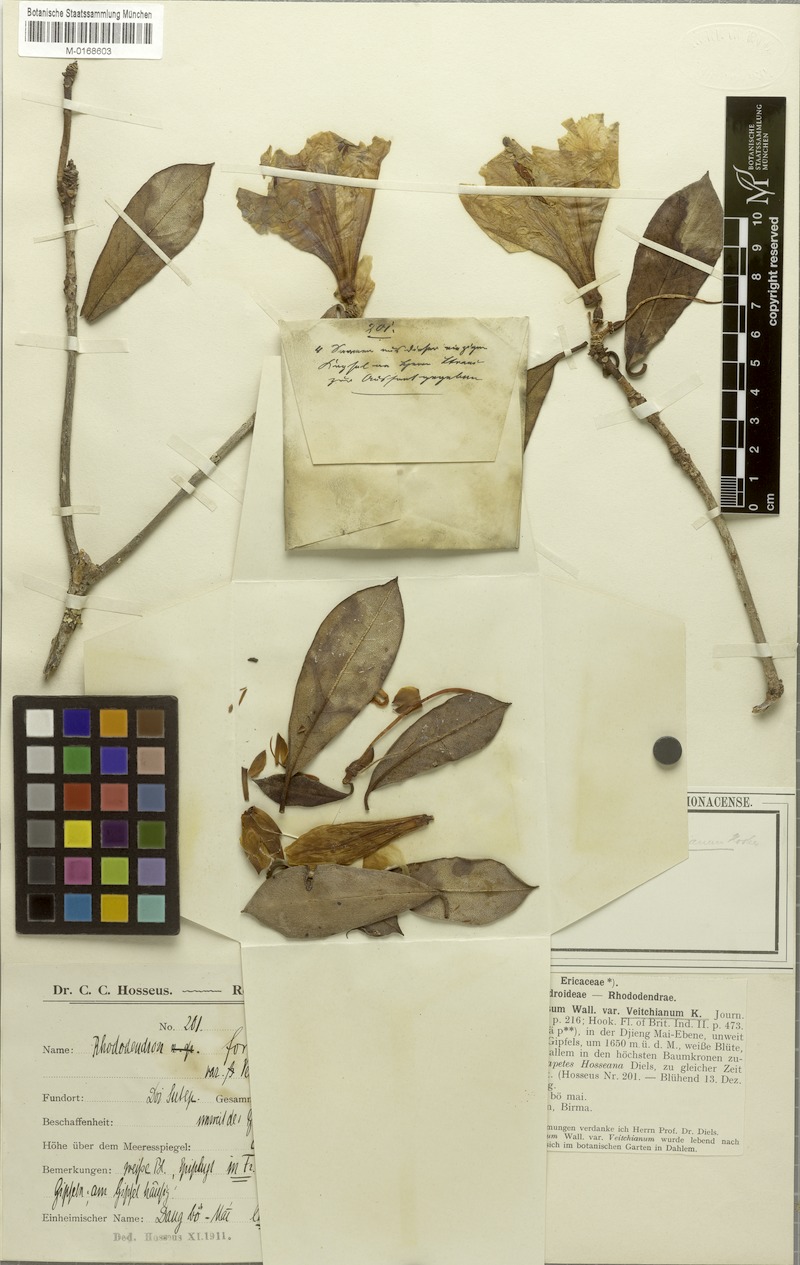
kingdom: Plantae
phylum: Tracheophyta
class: Magnoliopsida
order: Ericales
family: Ericaceae
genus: Rhododendron
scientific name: Rhododendron formosum
